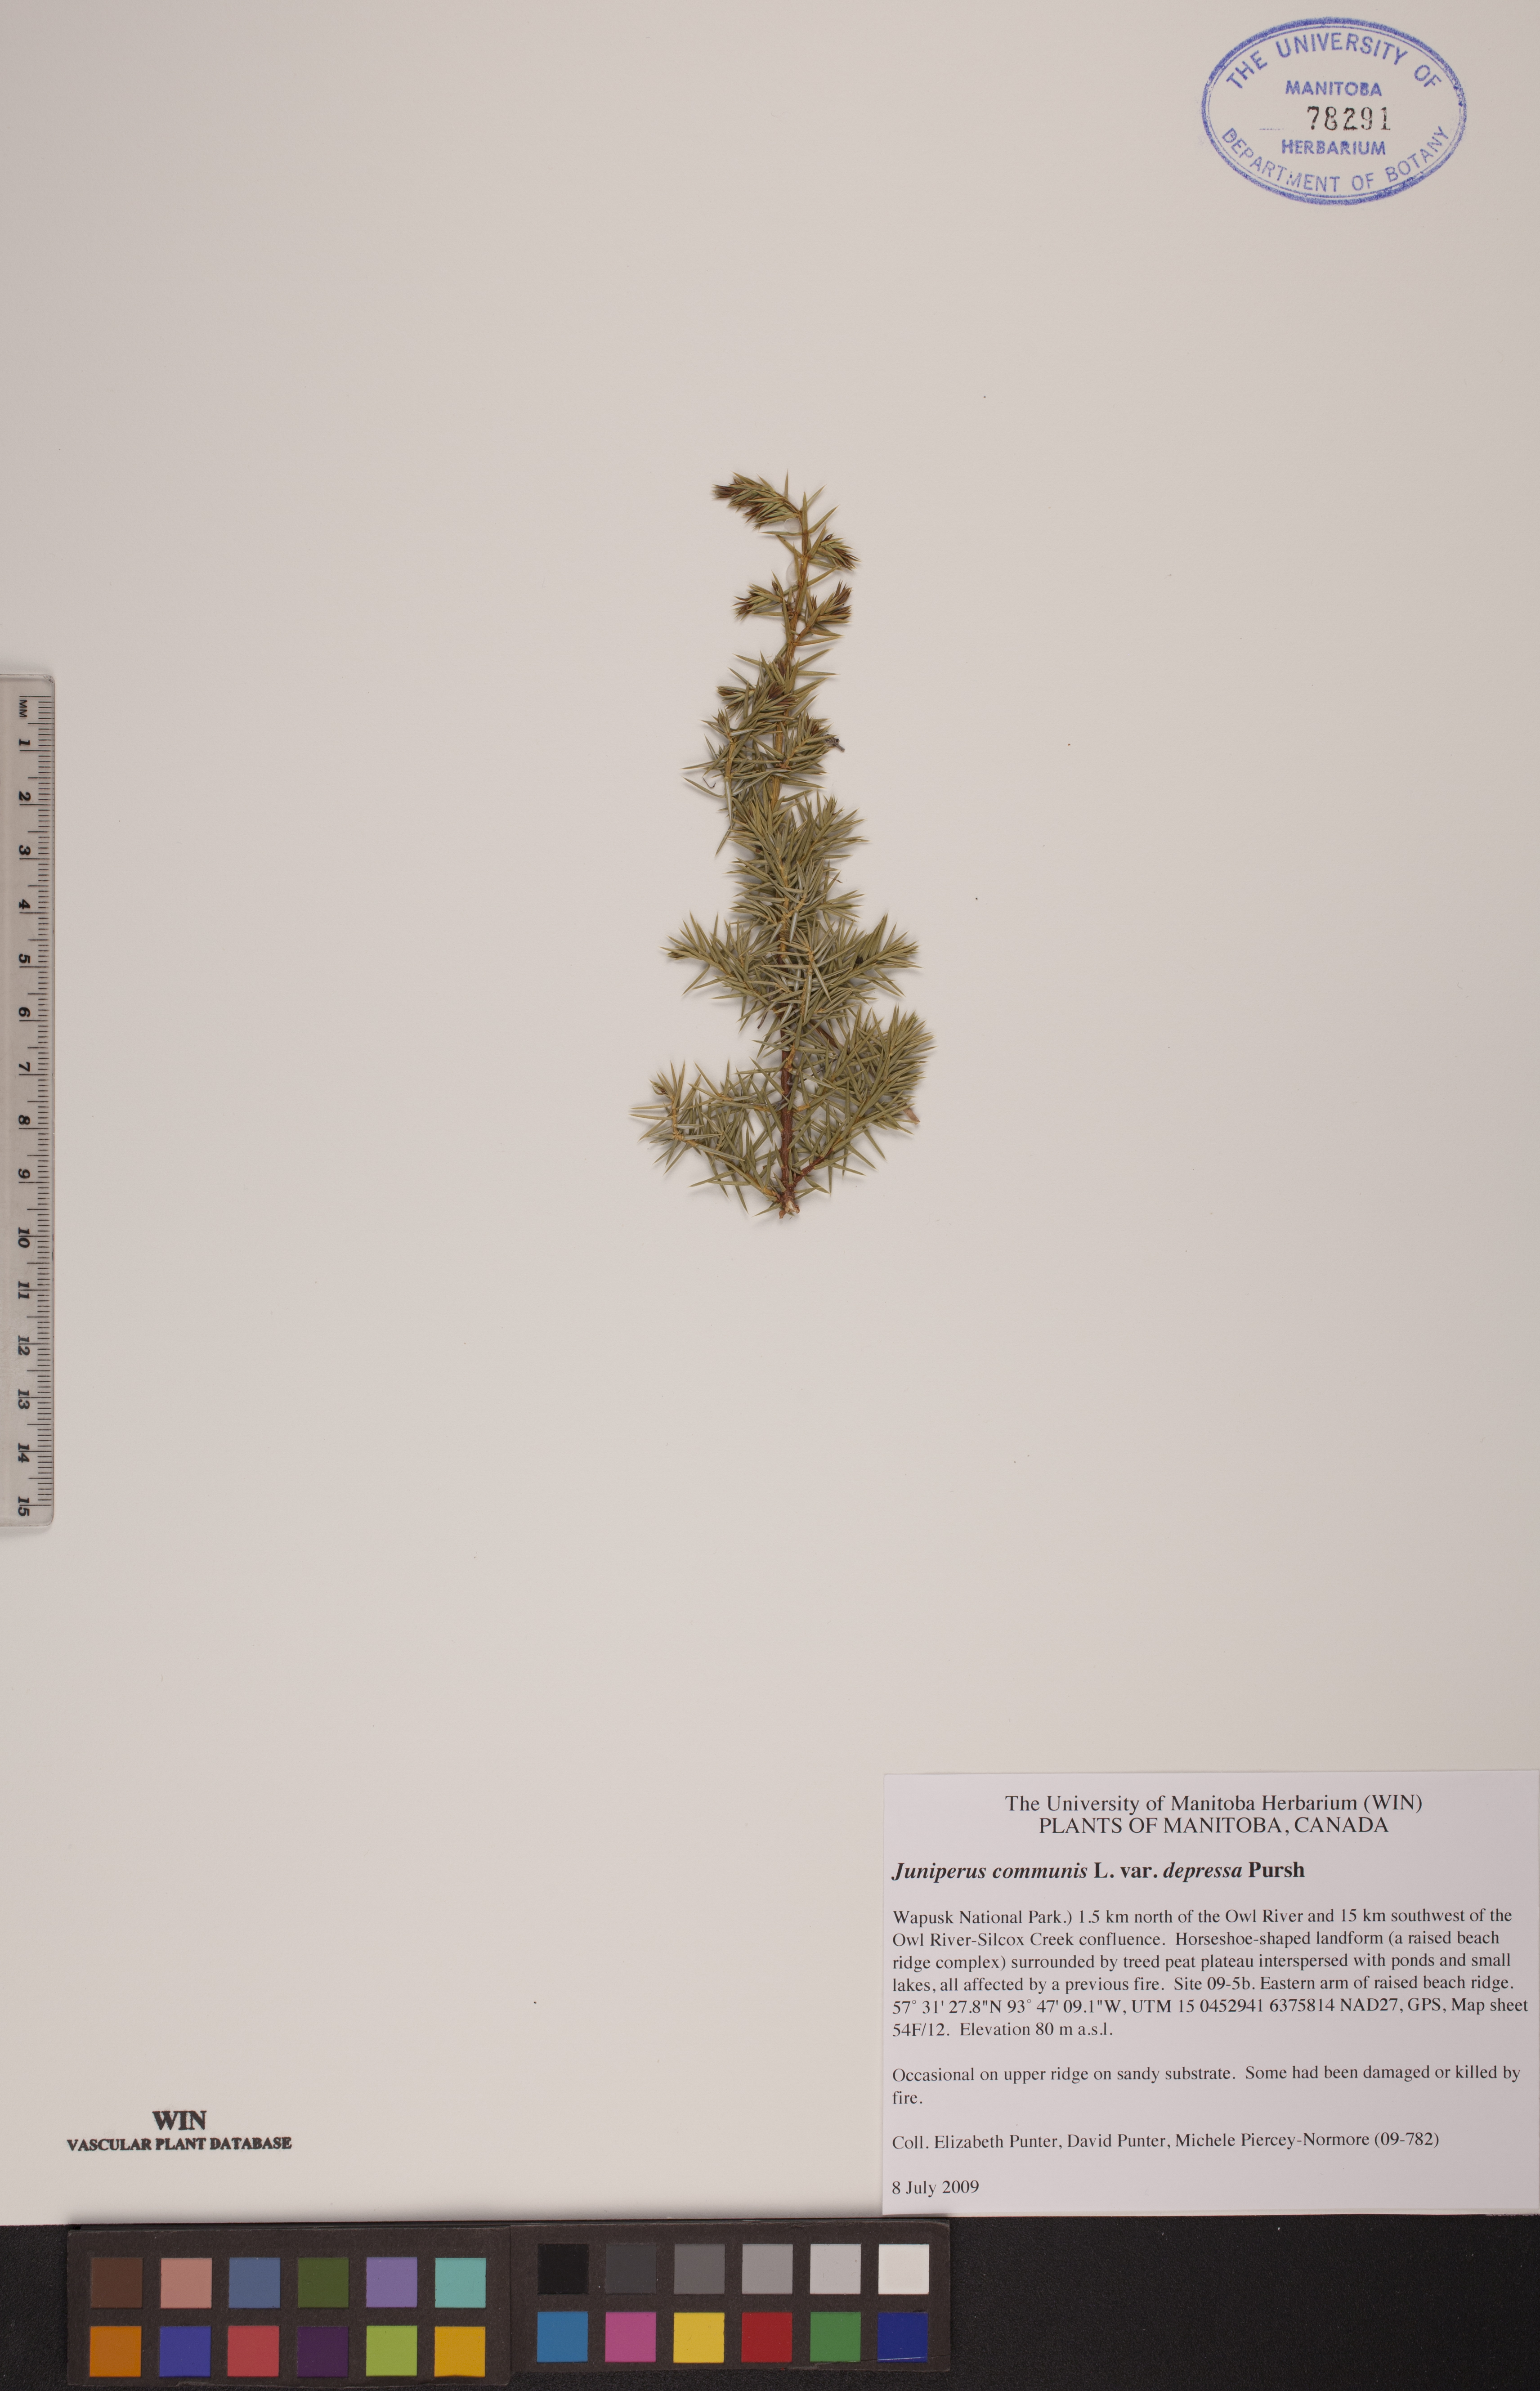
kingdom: Plantae
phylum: Tracheophyta
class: Pinopsida
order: Pinales
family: Cupressaceae
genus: Juniperus
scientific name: Juniperus communis
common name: Common juniper
